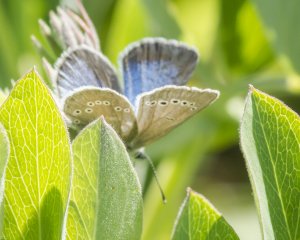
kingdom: Animalia
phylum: Arthropoda
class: Insecta
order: Lepidoptera
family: Lycaenidae
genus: Glaucopsyche
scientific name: Glaucopsyche lygdamus
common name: Silvery Blue
